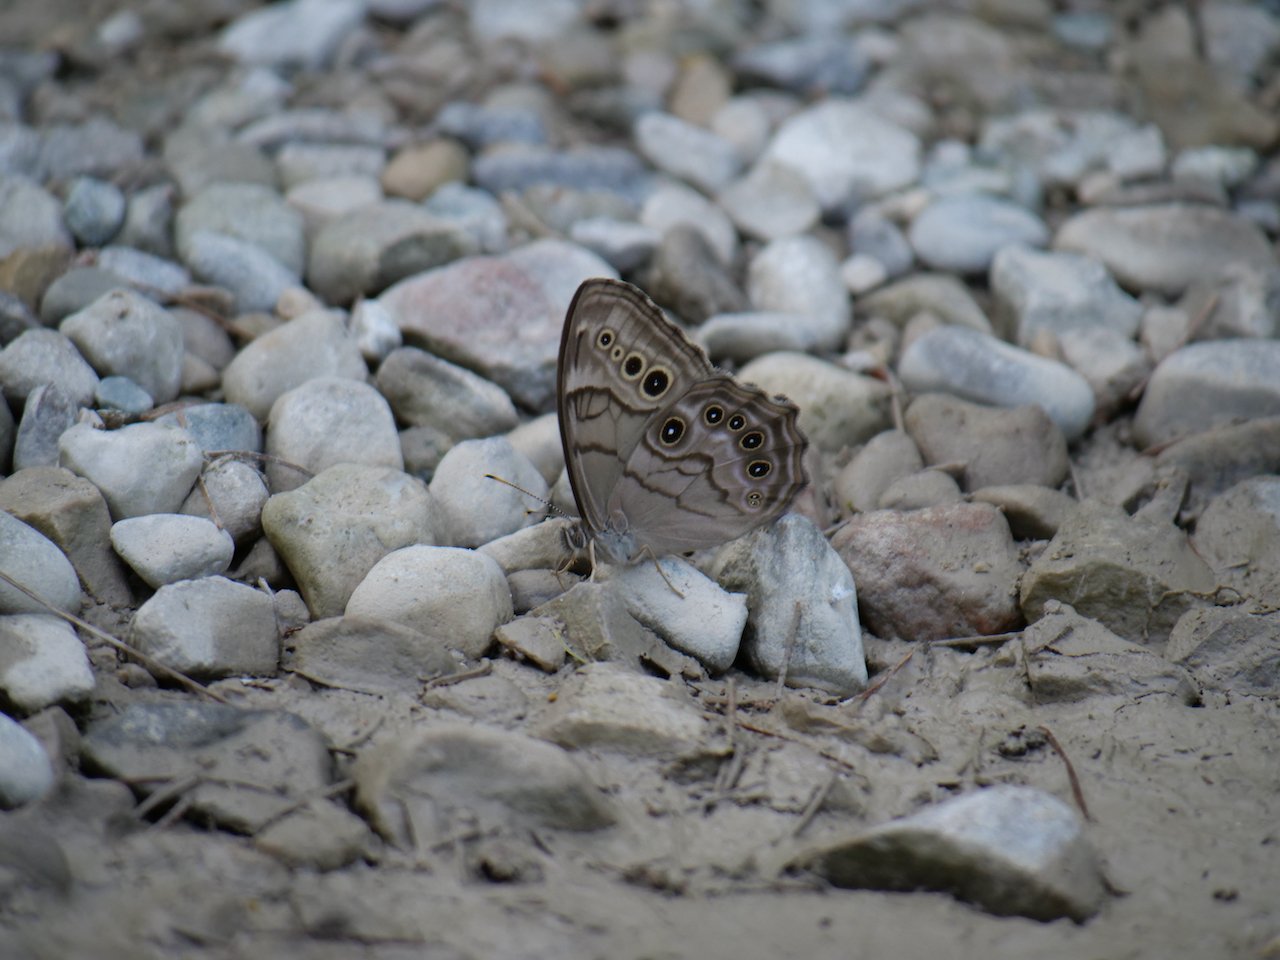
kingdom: Animalia
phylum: Arthropoda
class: Insecta
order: Lepidoptera
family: Nymphalidae
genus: Lethe
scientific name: Lethe anthedon
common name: Northern Pearly-Eye
